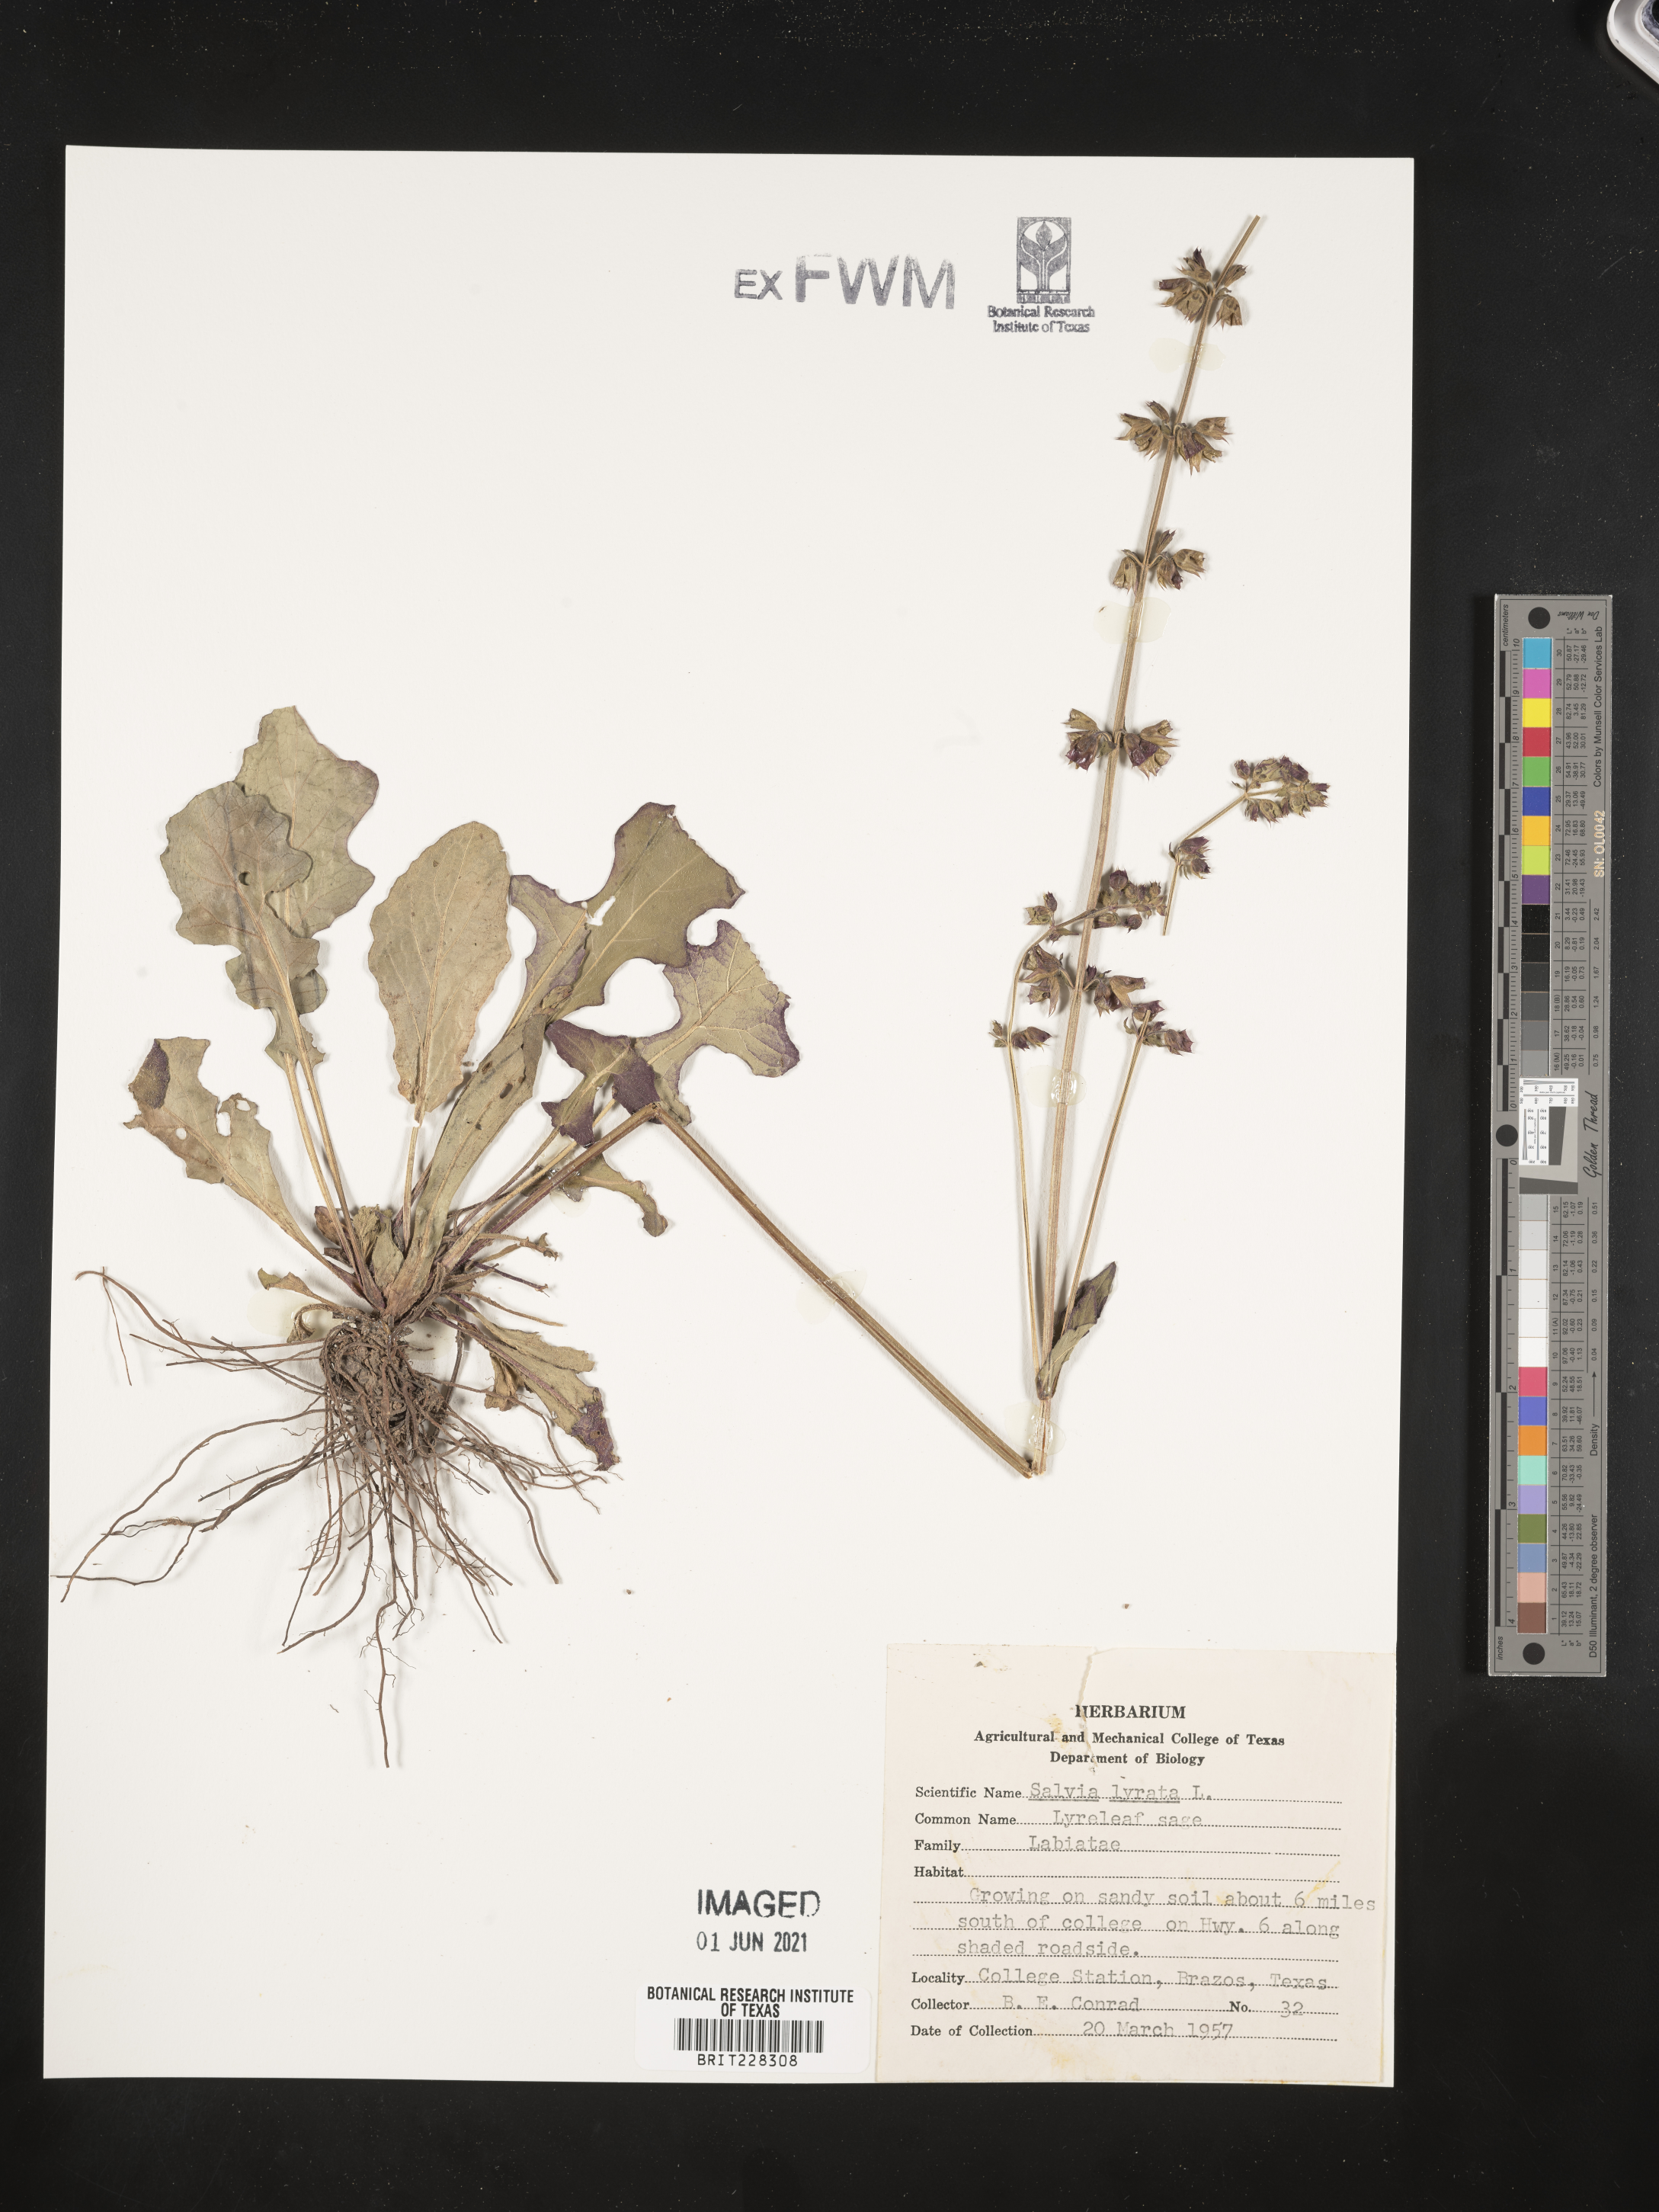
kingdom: Plantae
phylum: Tracheophyta
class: Magnoliopsida
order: Lamiales
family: Lamiaceae
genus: Salvia
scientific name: Salvia lyrata
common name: Cancerweed
